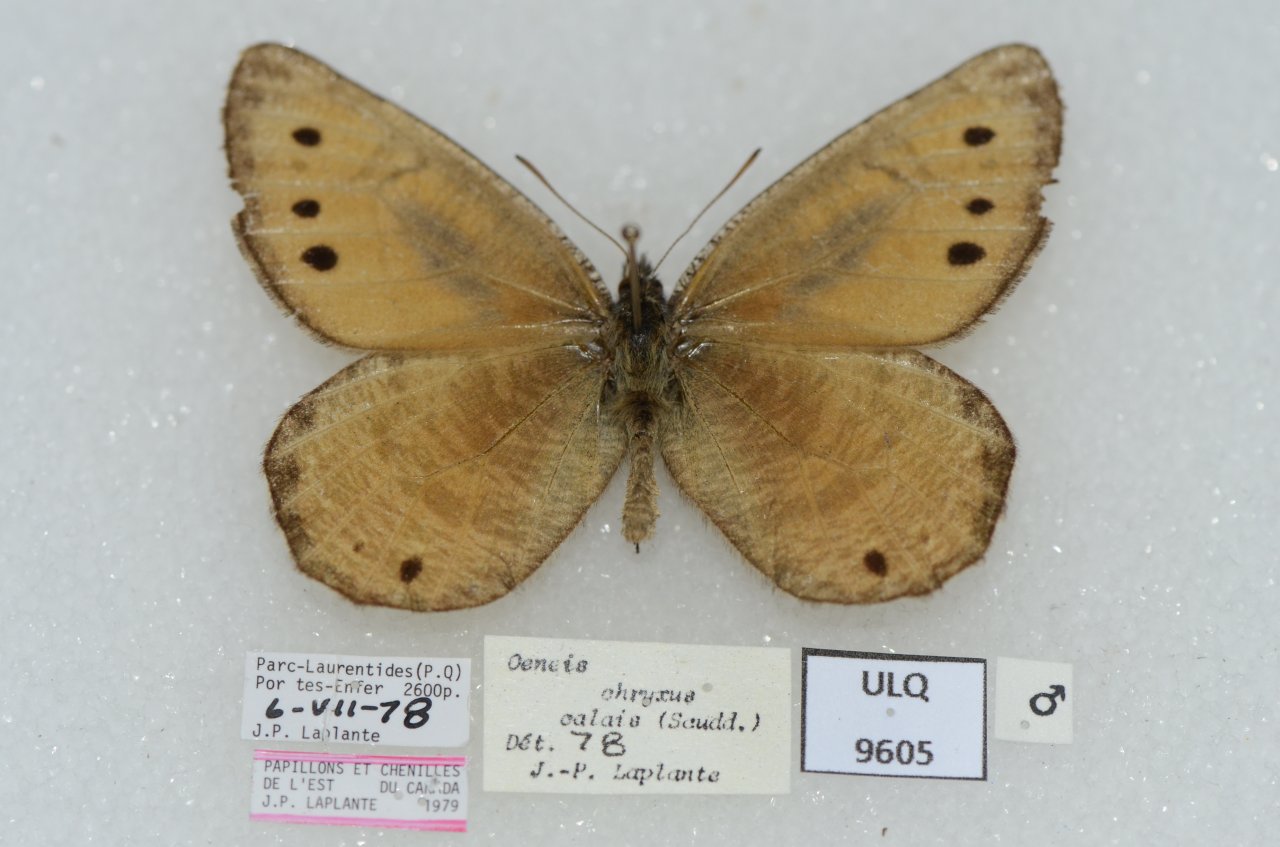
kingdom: Animalia
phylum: Arthropoda
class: Insecta
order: Lepidoptera
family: Nymphalidae
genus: Oeneis
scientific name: Oeneis chryxus
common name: Chryxus Arctic
